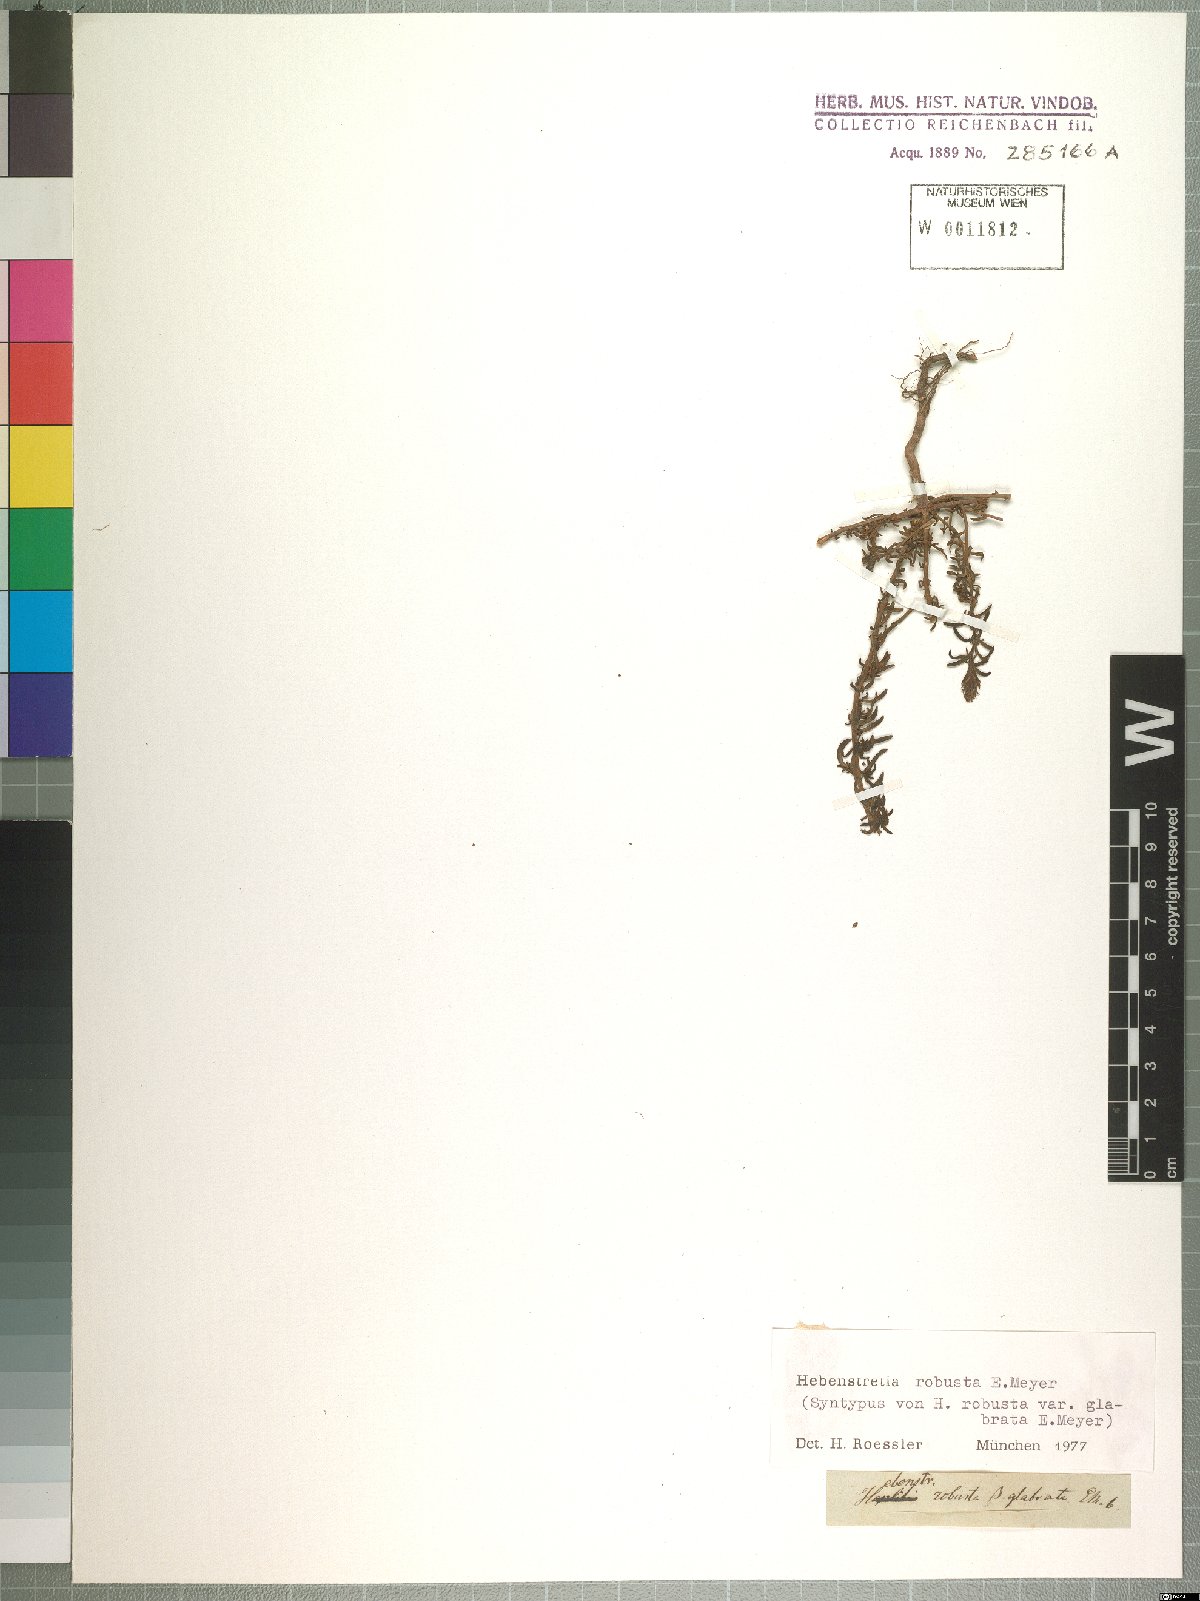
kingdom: Plantae
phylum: Tracheophyta
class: Magnoliopsida
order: Lamiales
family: Scrophulariaceae
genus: Hebenstretia
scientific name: Hebenstretia robusta
